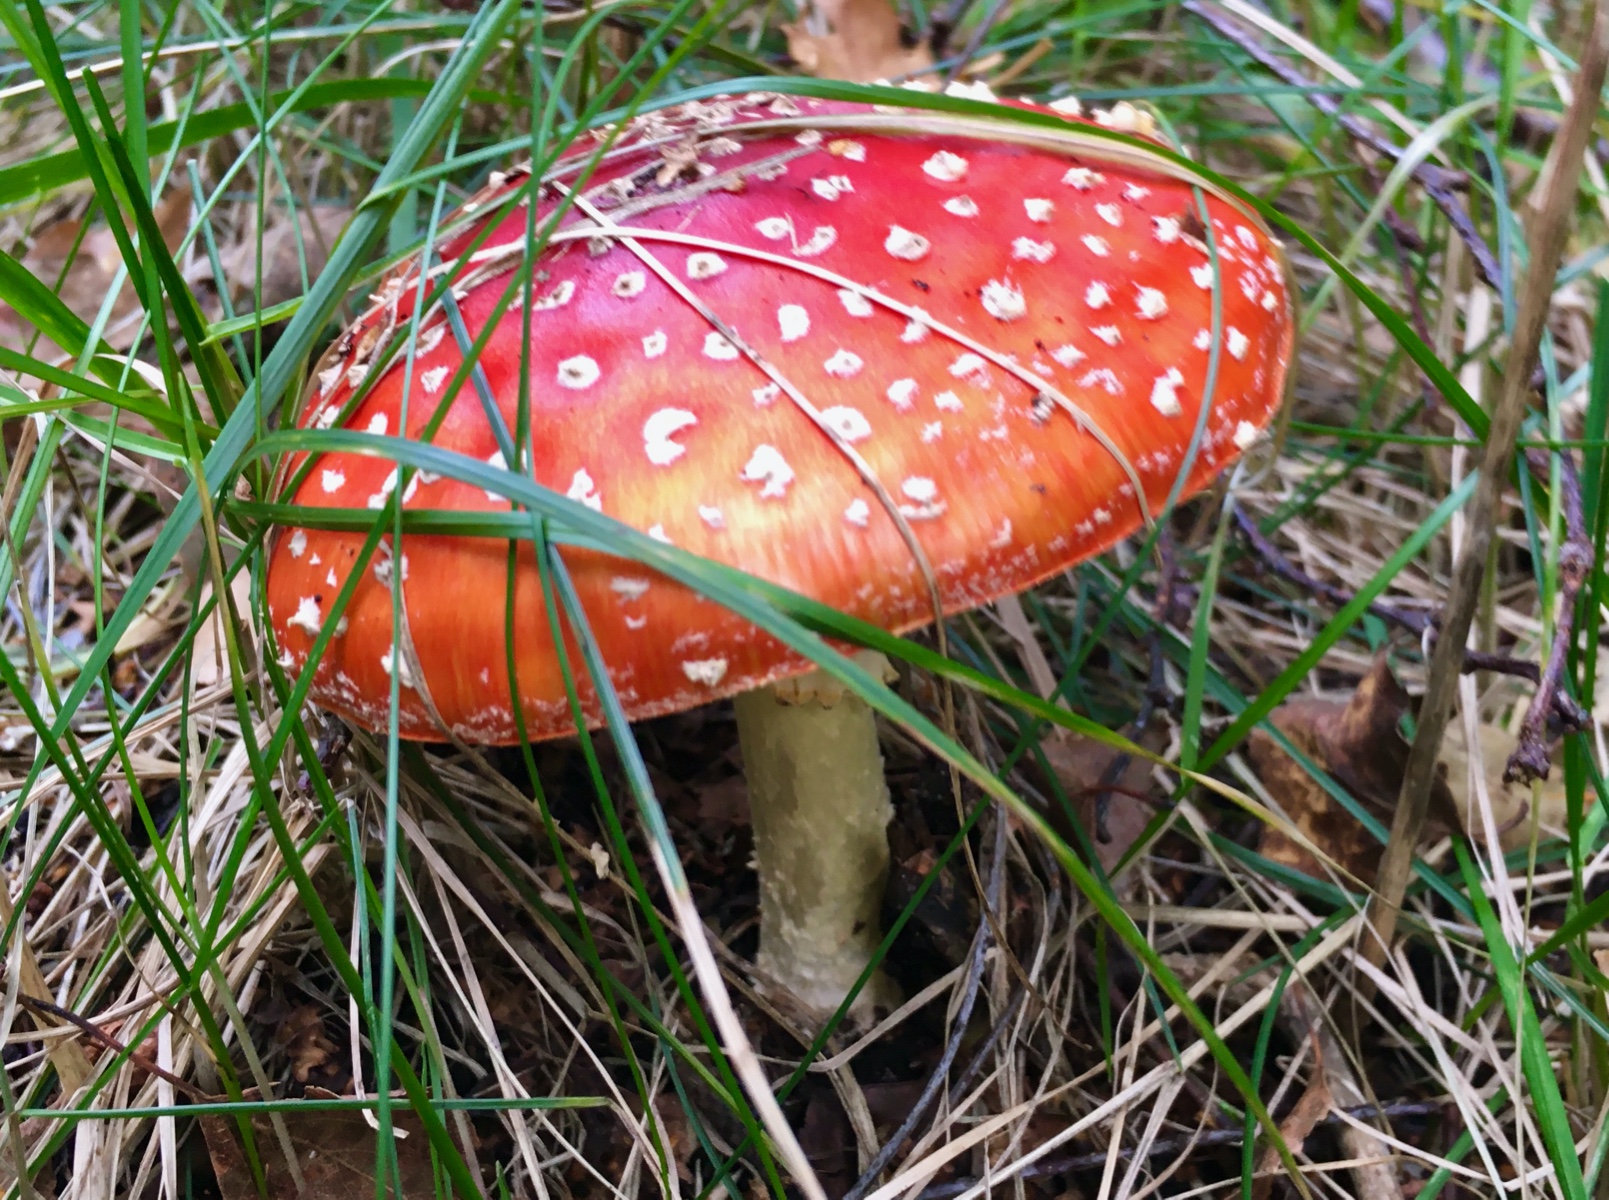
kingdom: Fungi
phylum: Basidiomycota
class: Agaricomycetes
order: Agaricales
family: Amanitaceae
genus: Amanita
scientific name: Amanita muscaria
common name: rød fluesvamp
